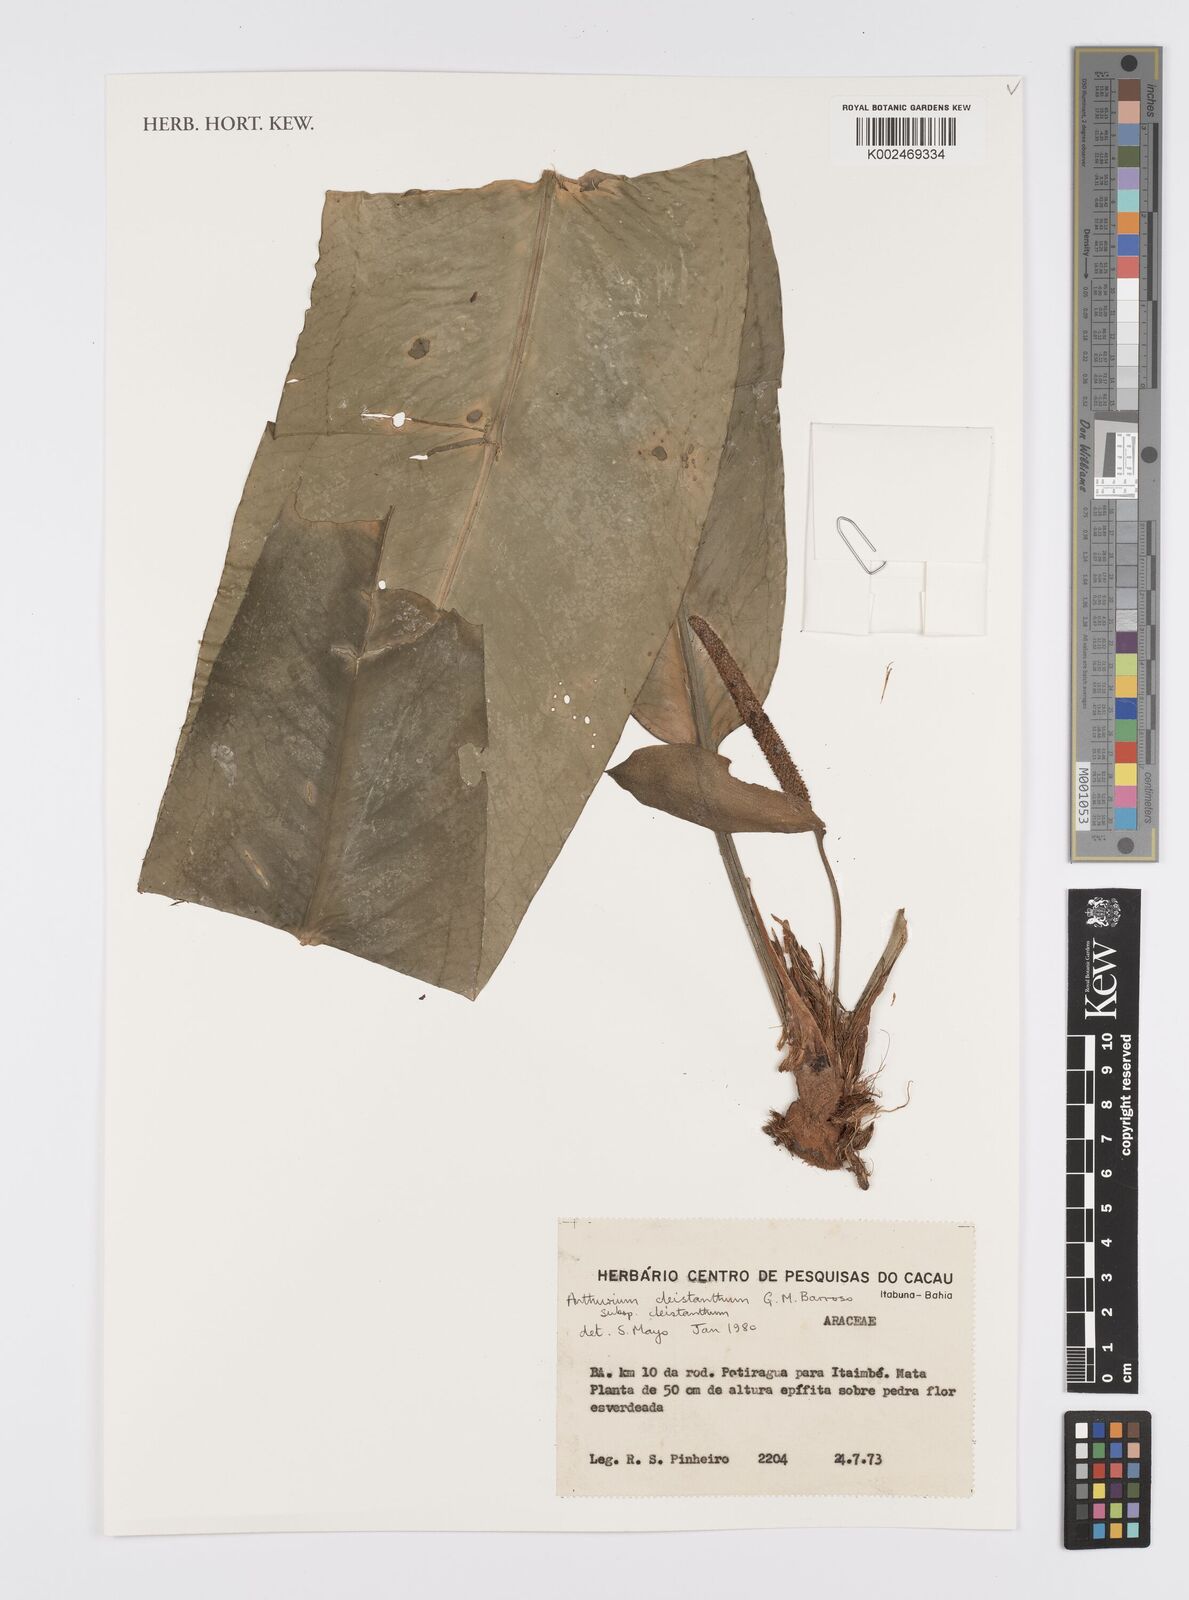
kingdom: Plantae
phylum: Tracheophyta
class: Liliopsida
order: Alismatales
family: Araceae
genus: Anthurium
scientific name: Anthurium cleistanthum
